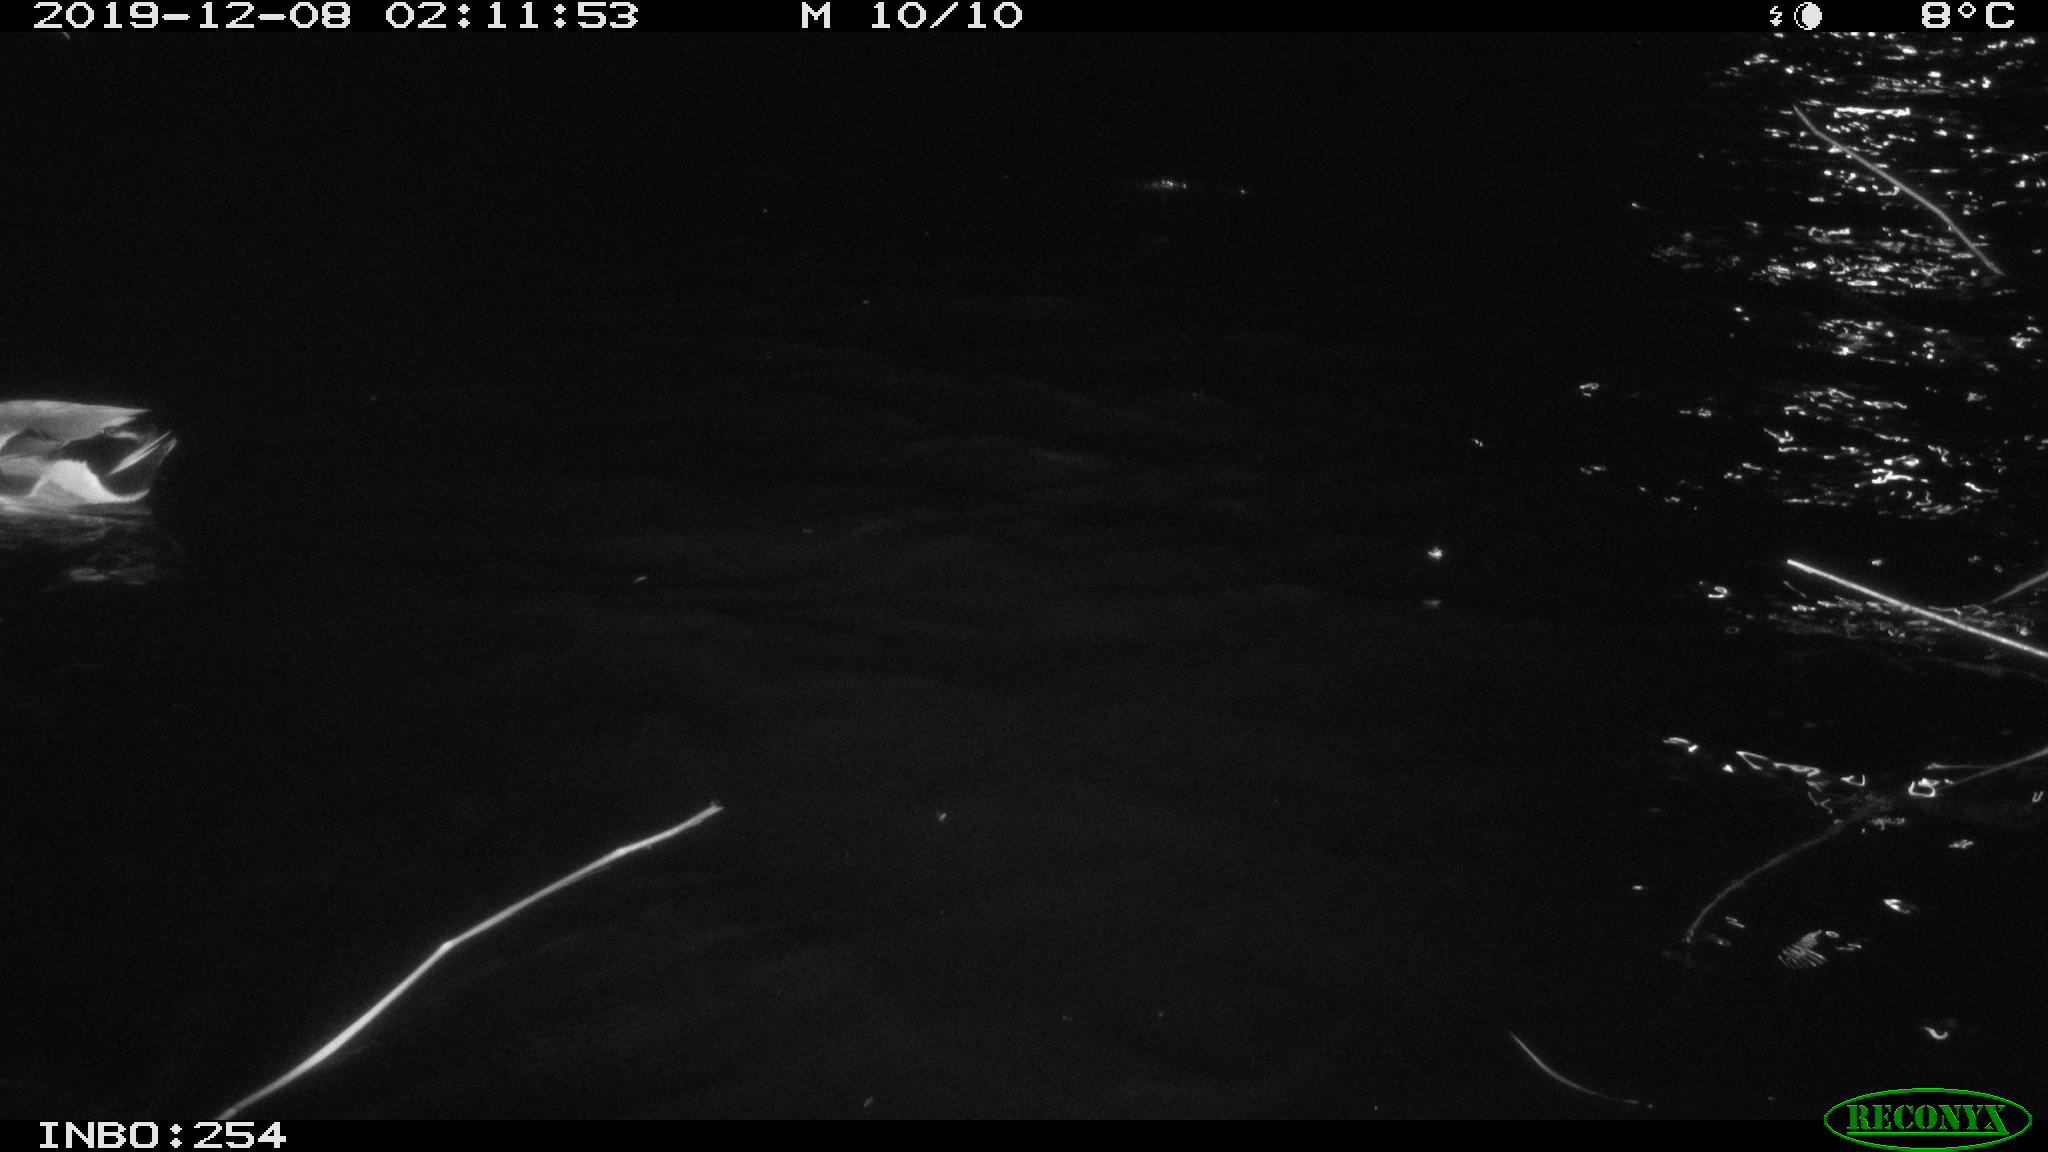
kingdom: Animalia
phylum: Chordata
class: Aves
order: Anseriformes
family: Anatidae
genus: Anas
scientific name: Anas platyrhynchos
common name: Mallard
